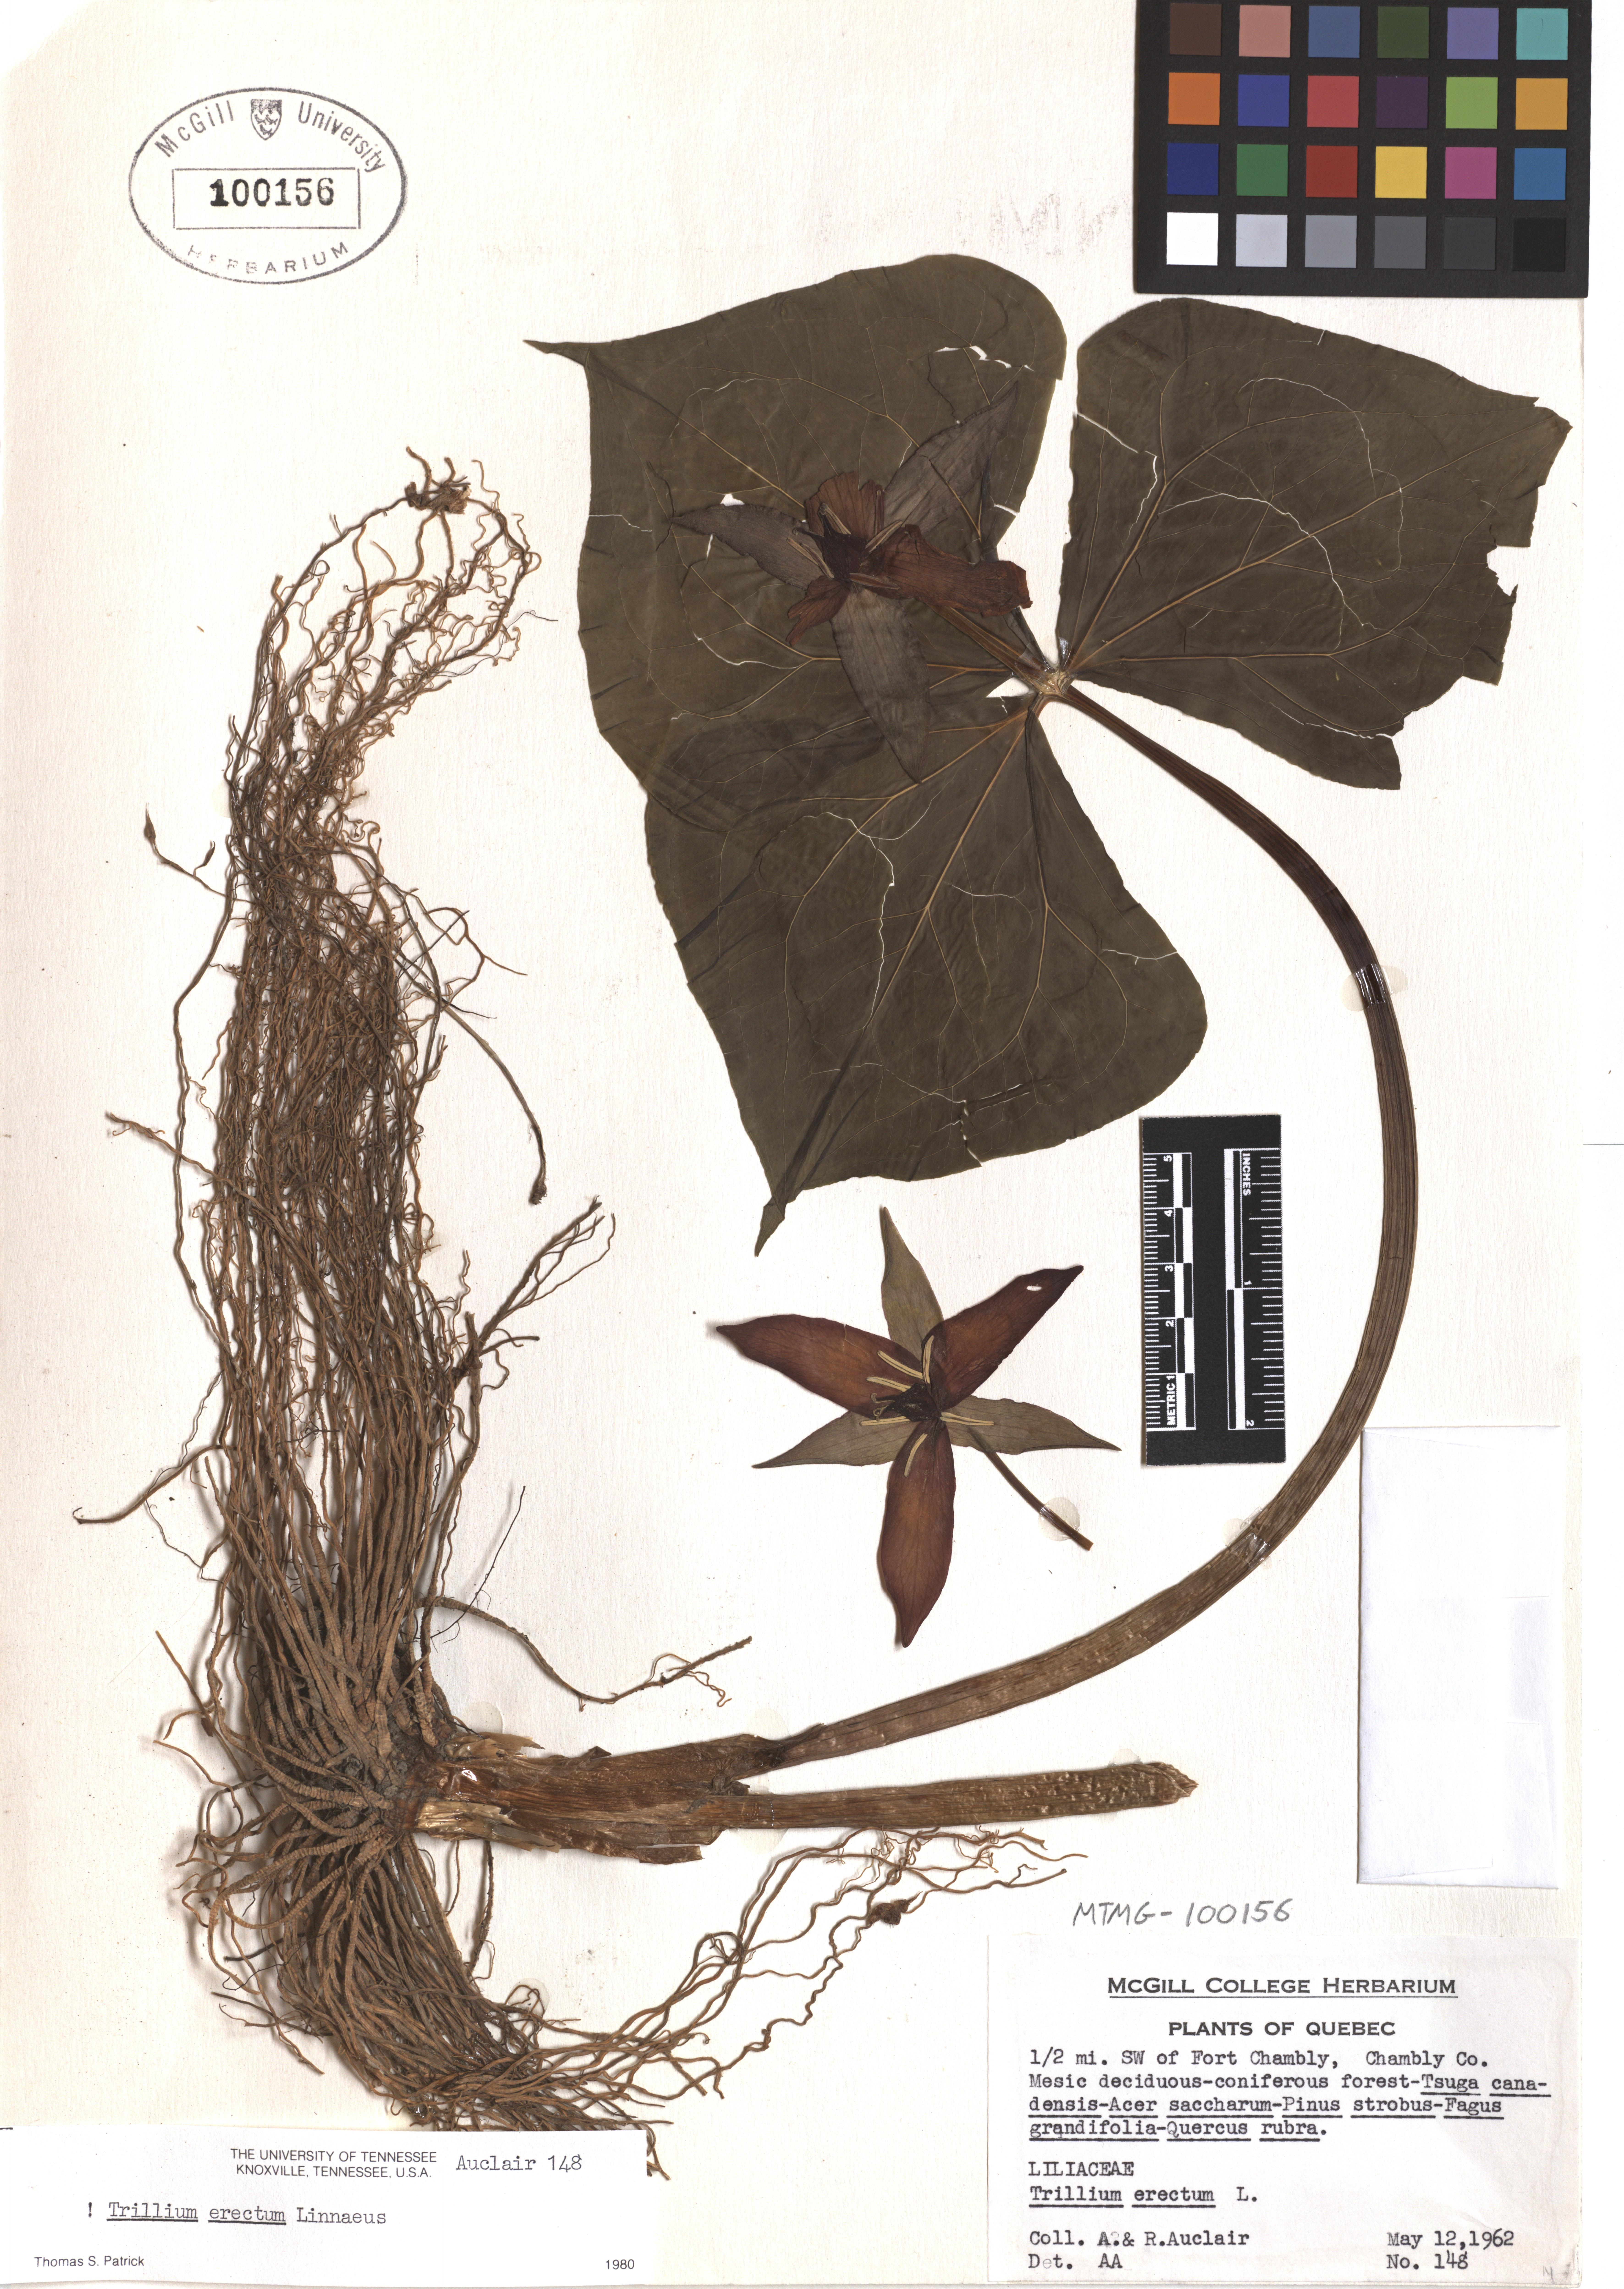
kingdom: Plantae
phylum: Tracheophyta
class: Liliopsida
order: Liliales
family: Melanthiaceae
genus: Trillium
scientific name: Trillium erectum
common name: Purple trillium
